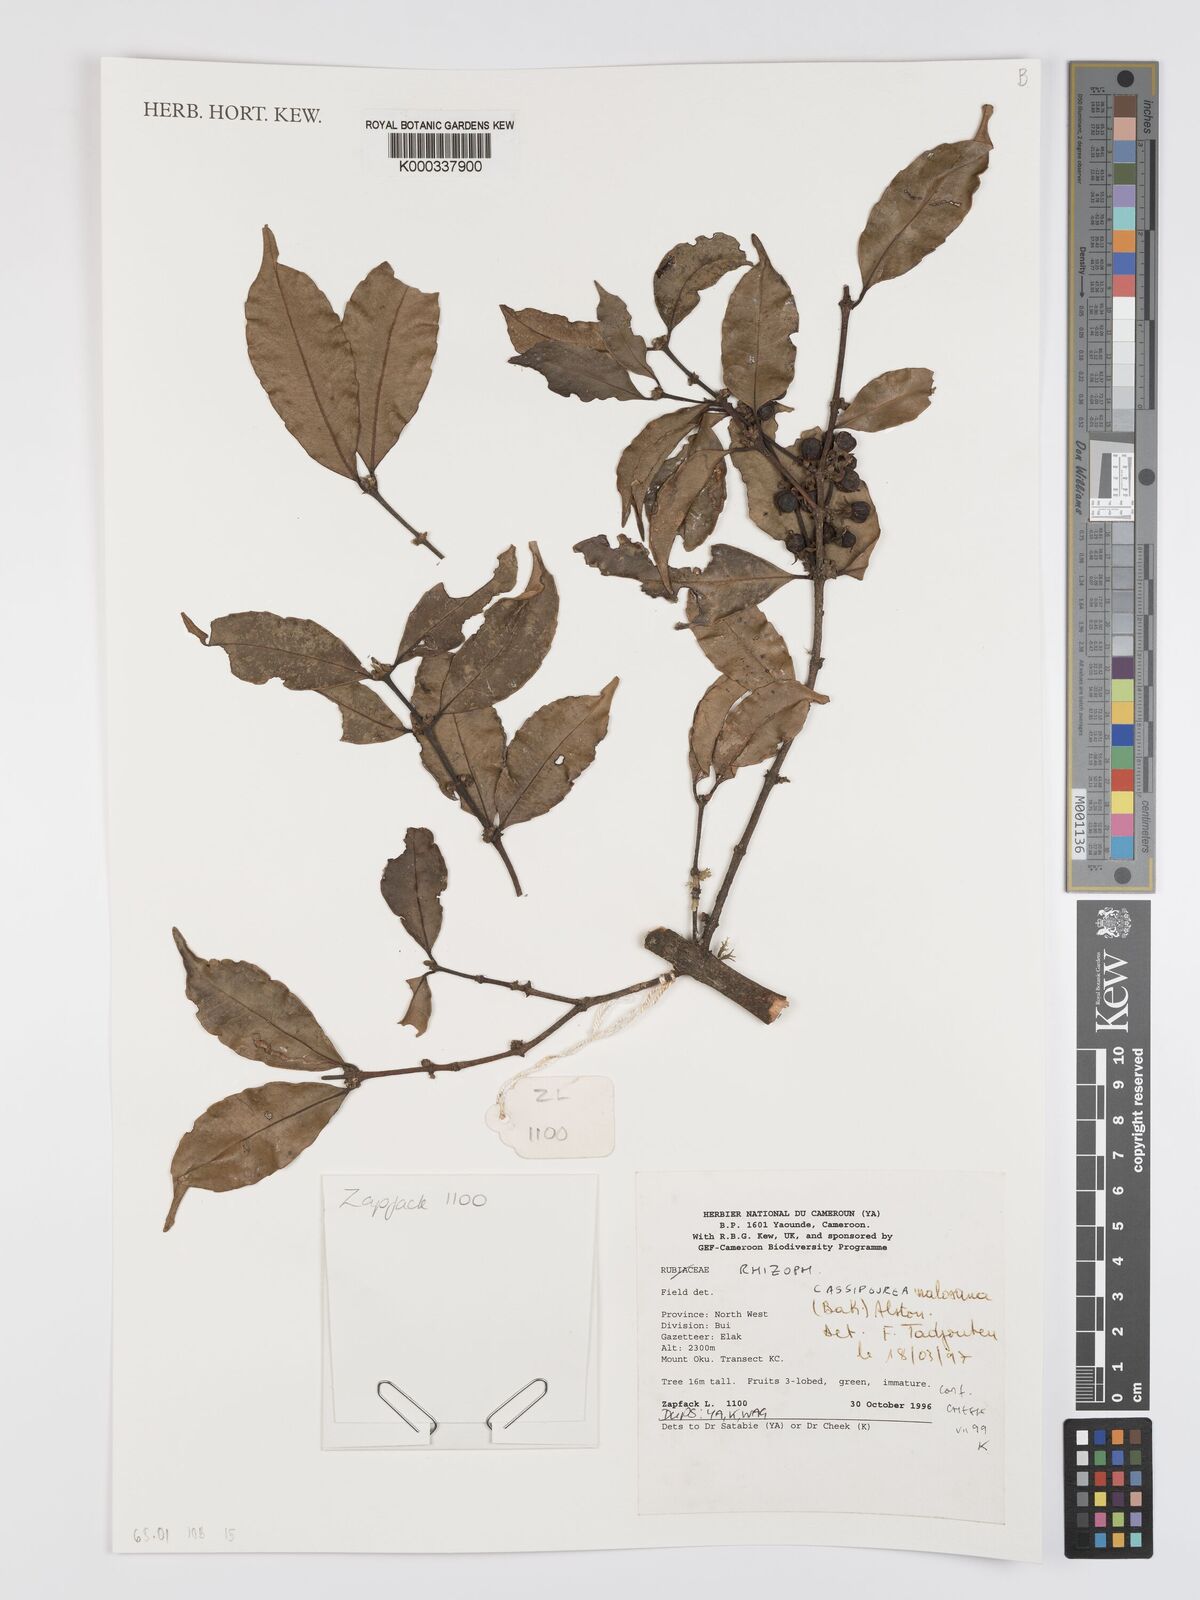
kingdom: Plantae
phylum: Tracheophyta
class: Magnoliopsida
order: Malpighiales
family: Rhizophoraceae
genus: Cassipourea
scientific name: Cassipourea malosana
